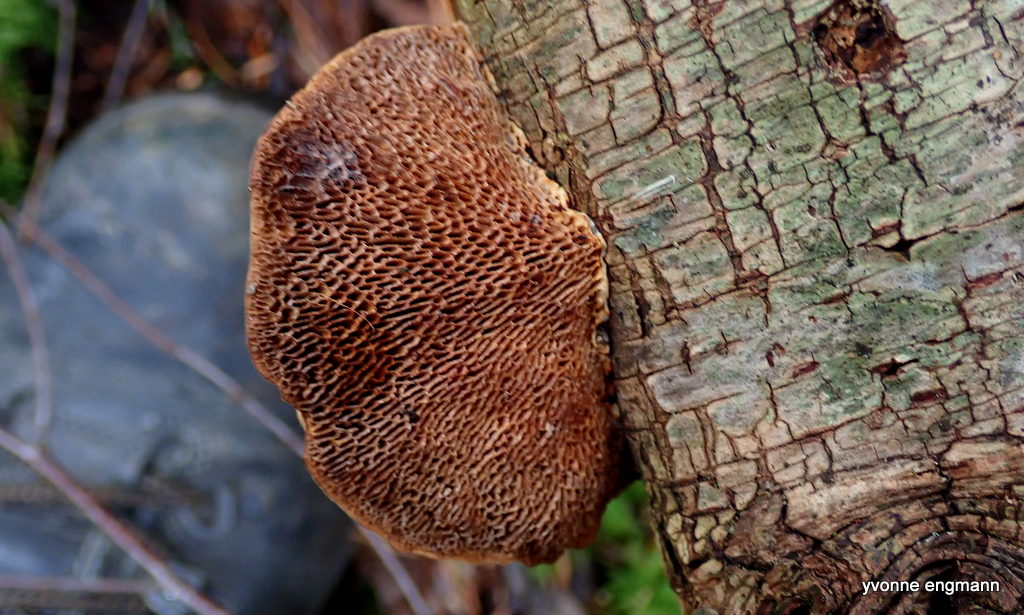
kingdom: Fungi
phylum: Basidiomycota
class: Agaricomycetes
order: Polyporales
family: Polyporaceae
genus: Daedaleopsis
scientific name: Daedaleopsis confragosa
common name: rødmende læderporesvamp
